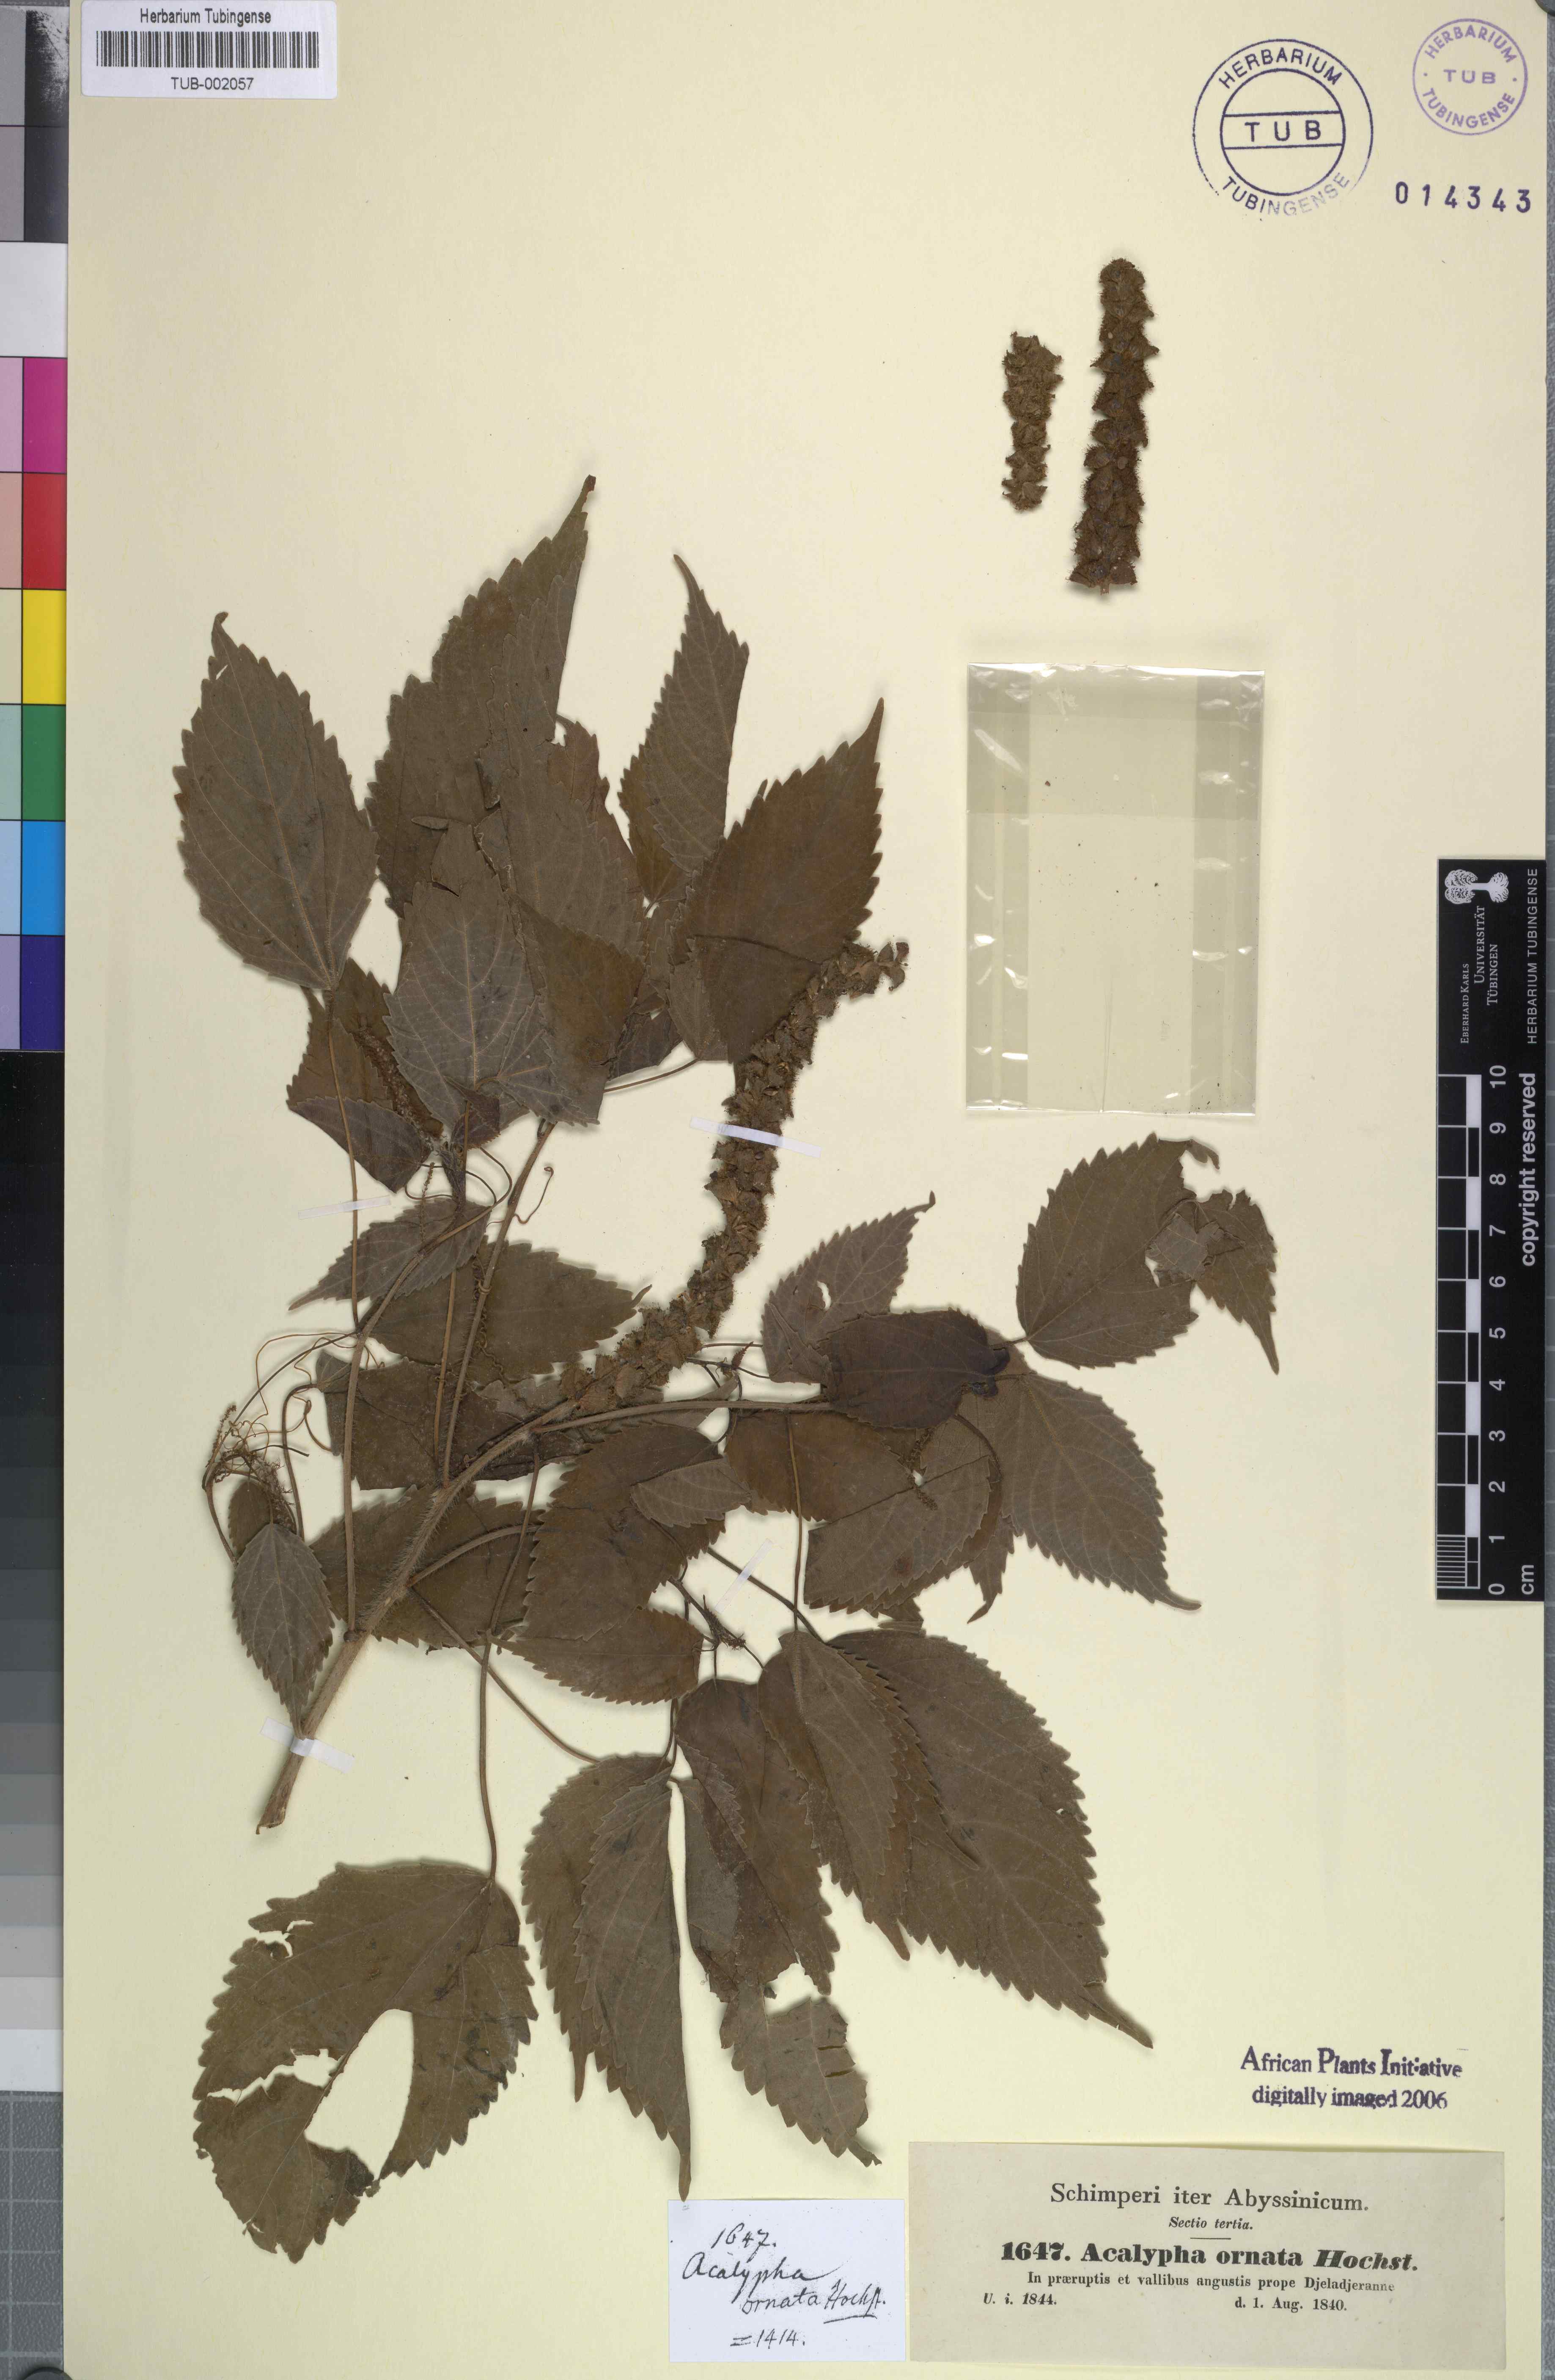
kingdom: Plantae
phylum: Tracheophyta
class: Magnoliopsida
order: Malpighiales
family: Euphorbiaceae
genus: Acalypha
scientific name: Acalypha ornata
